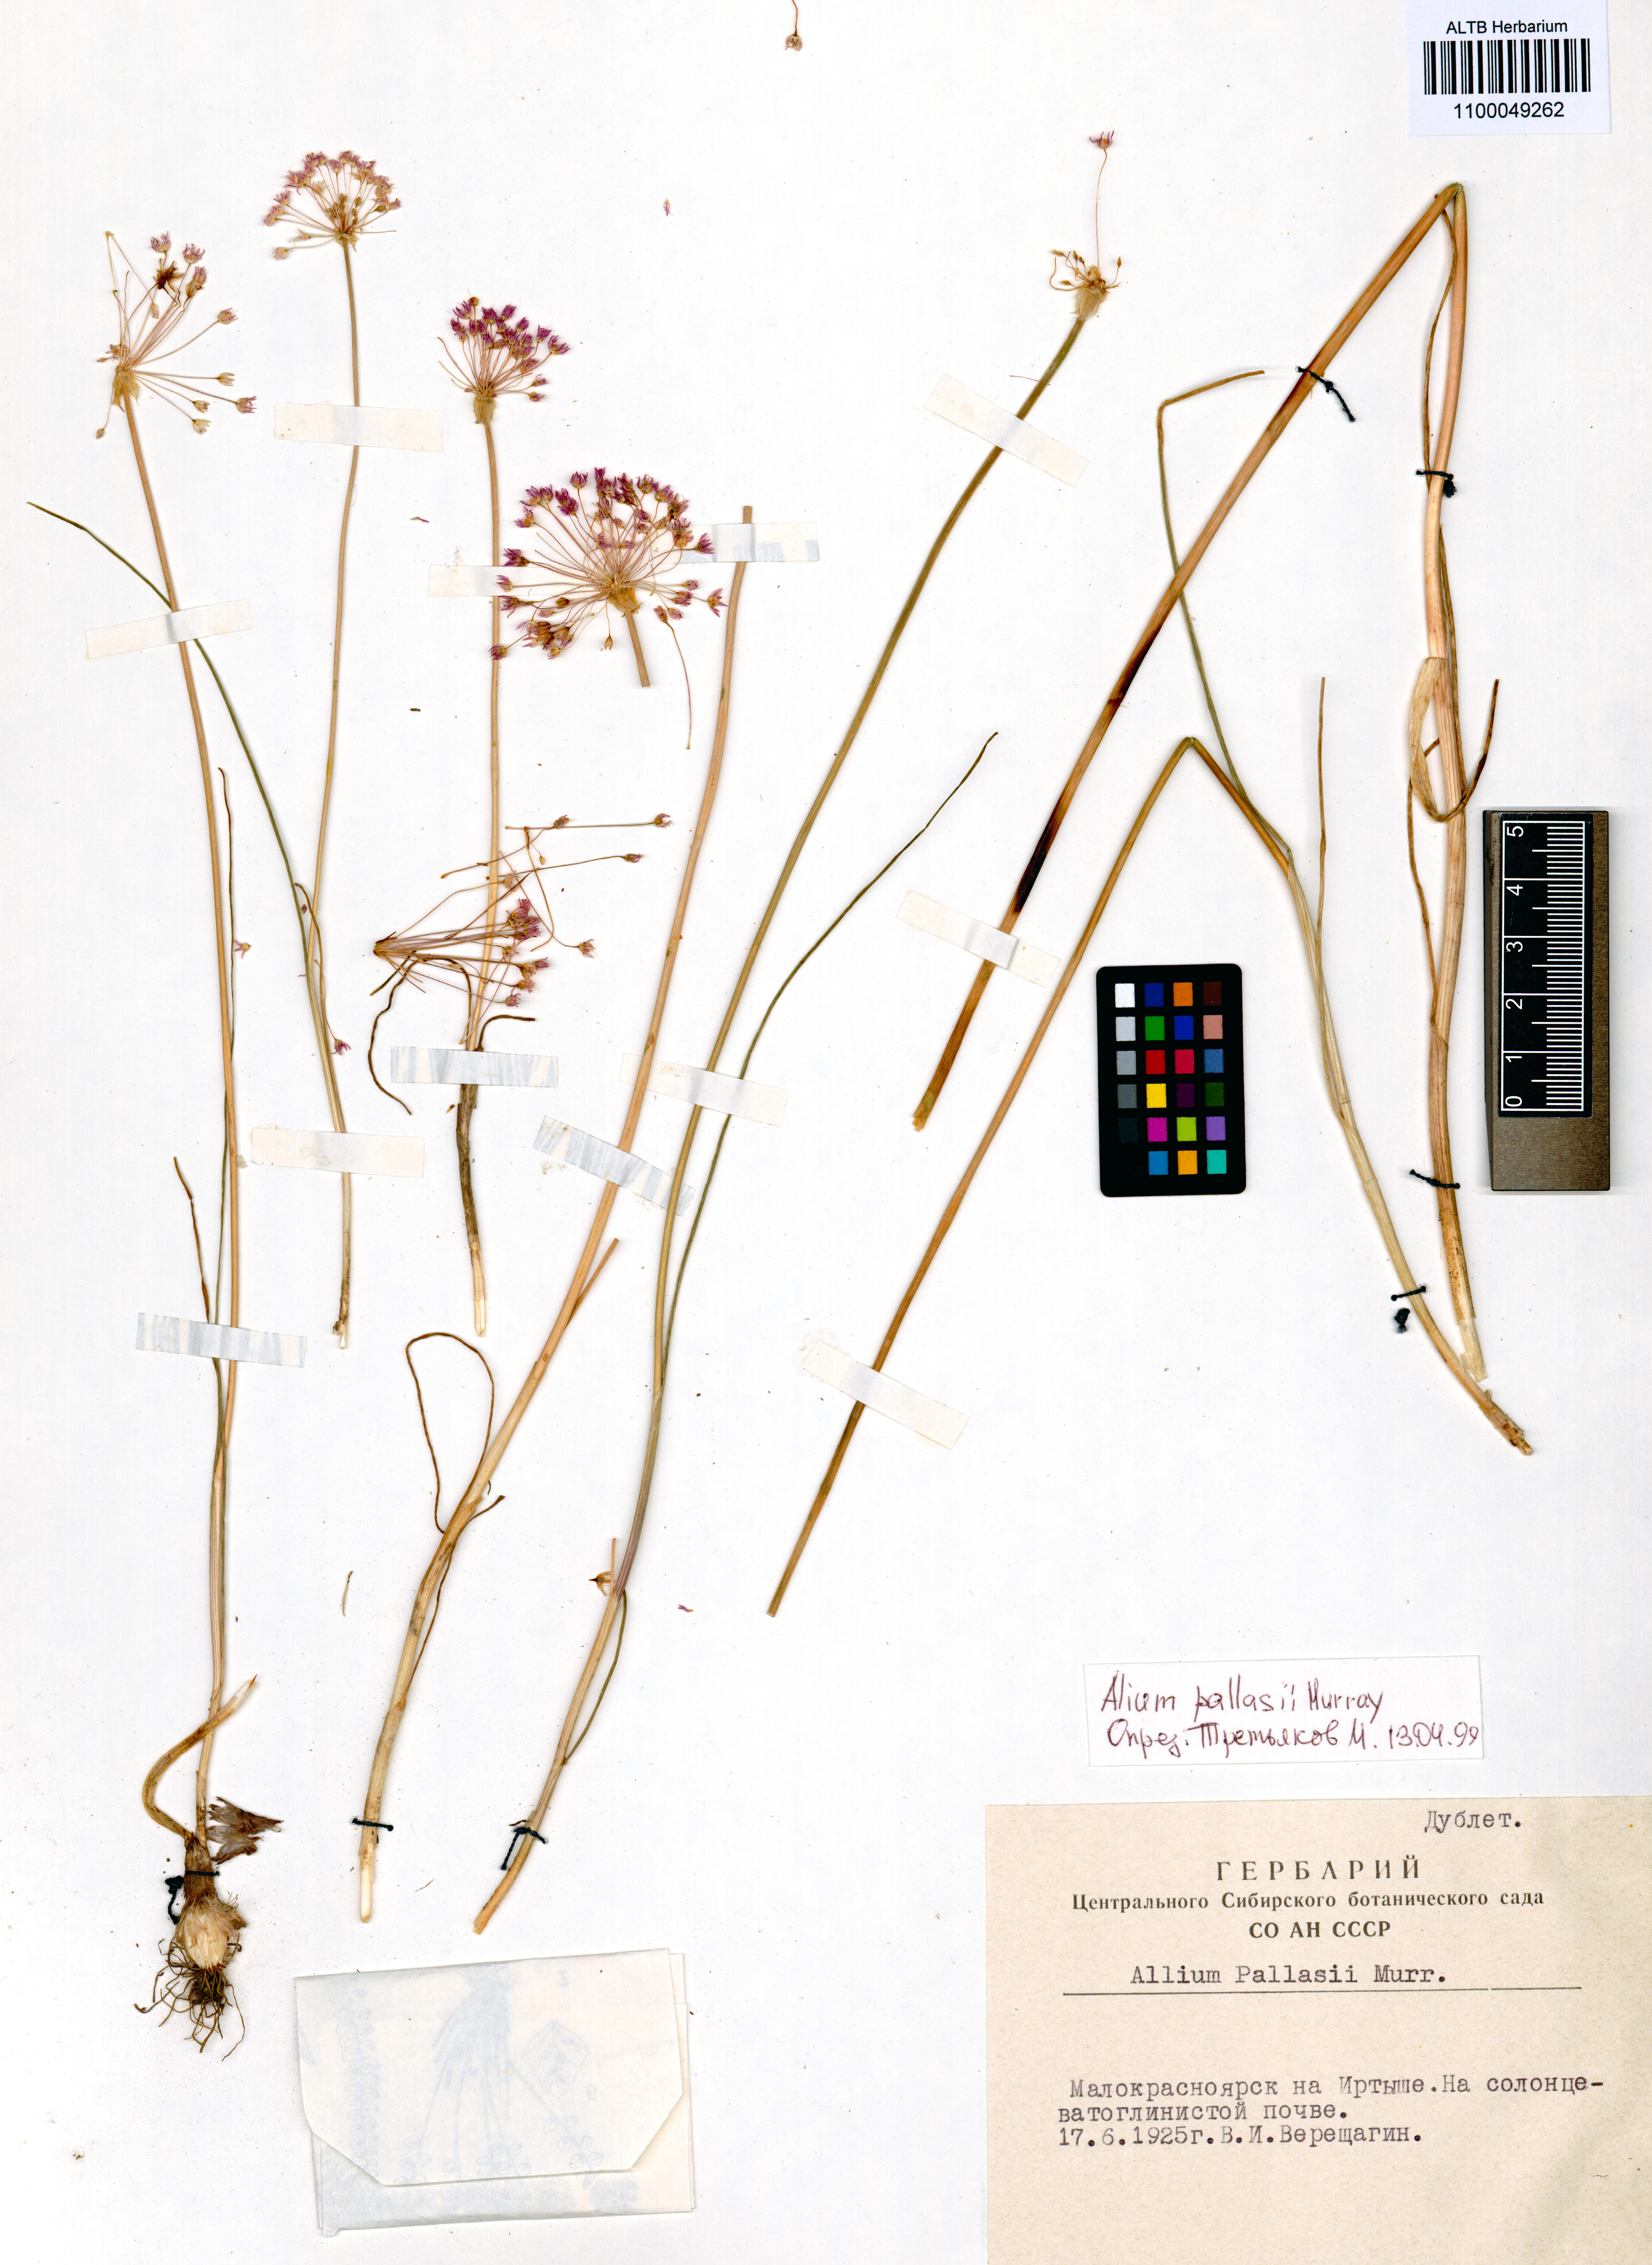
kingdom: Plantae
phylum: Tracheophyta
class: Liliopsida
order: Asparagales
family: Amaryllidaceae
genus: Allium
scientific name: Allium pallasii
